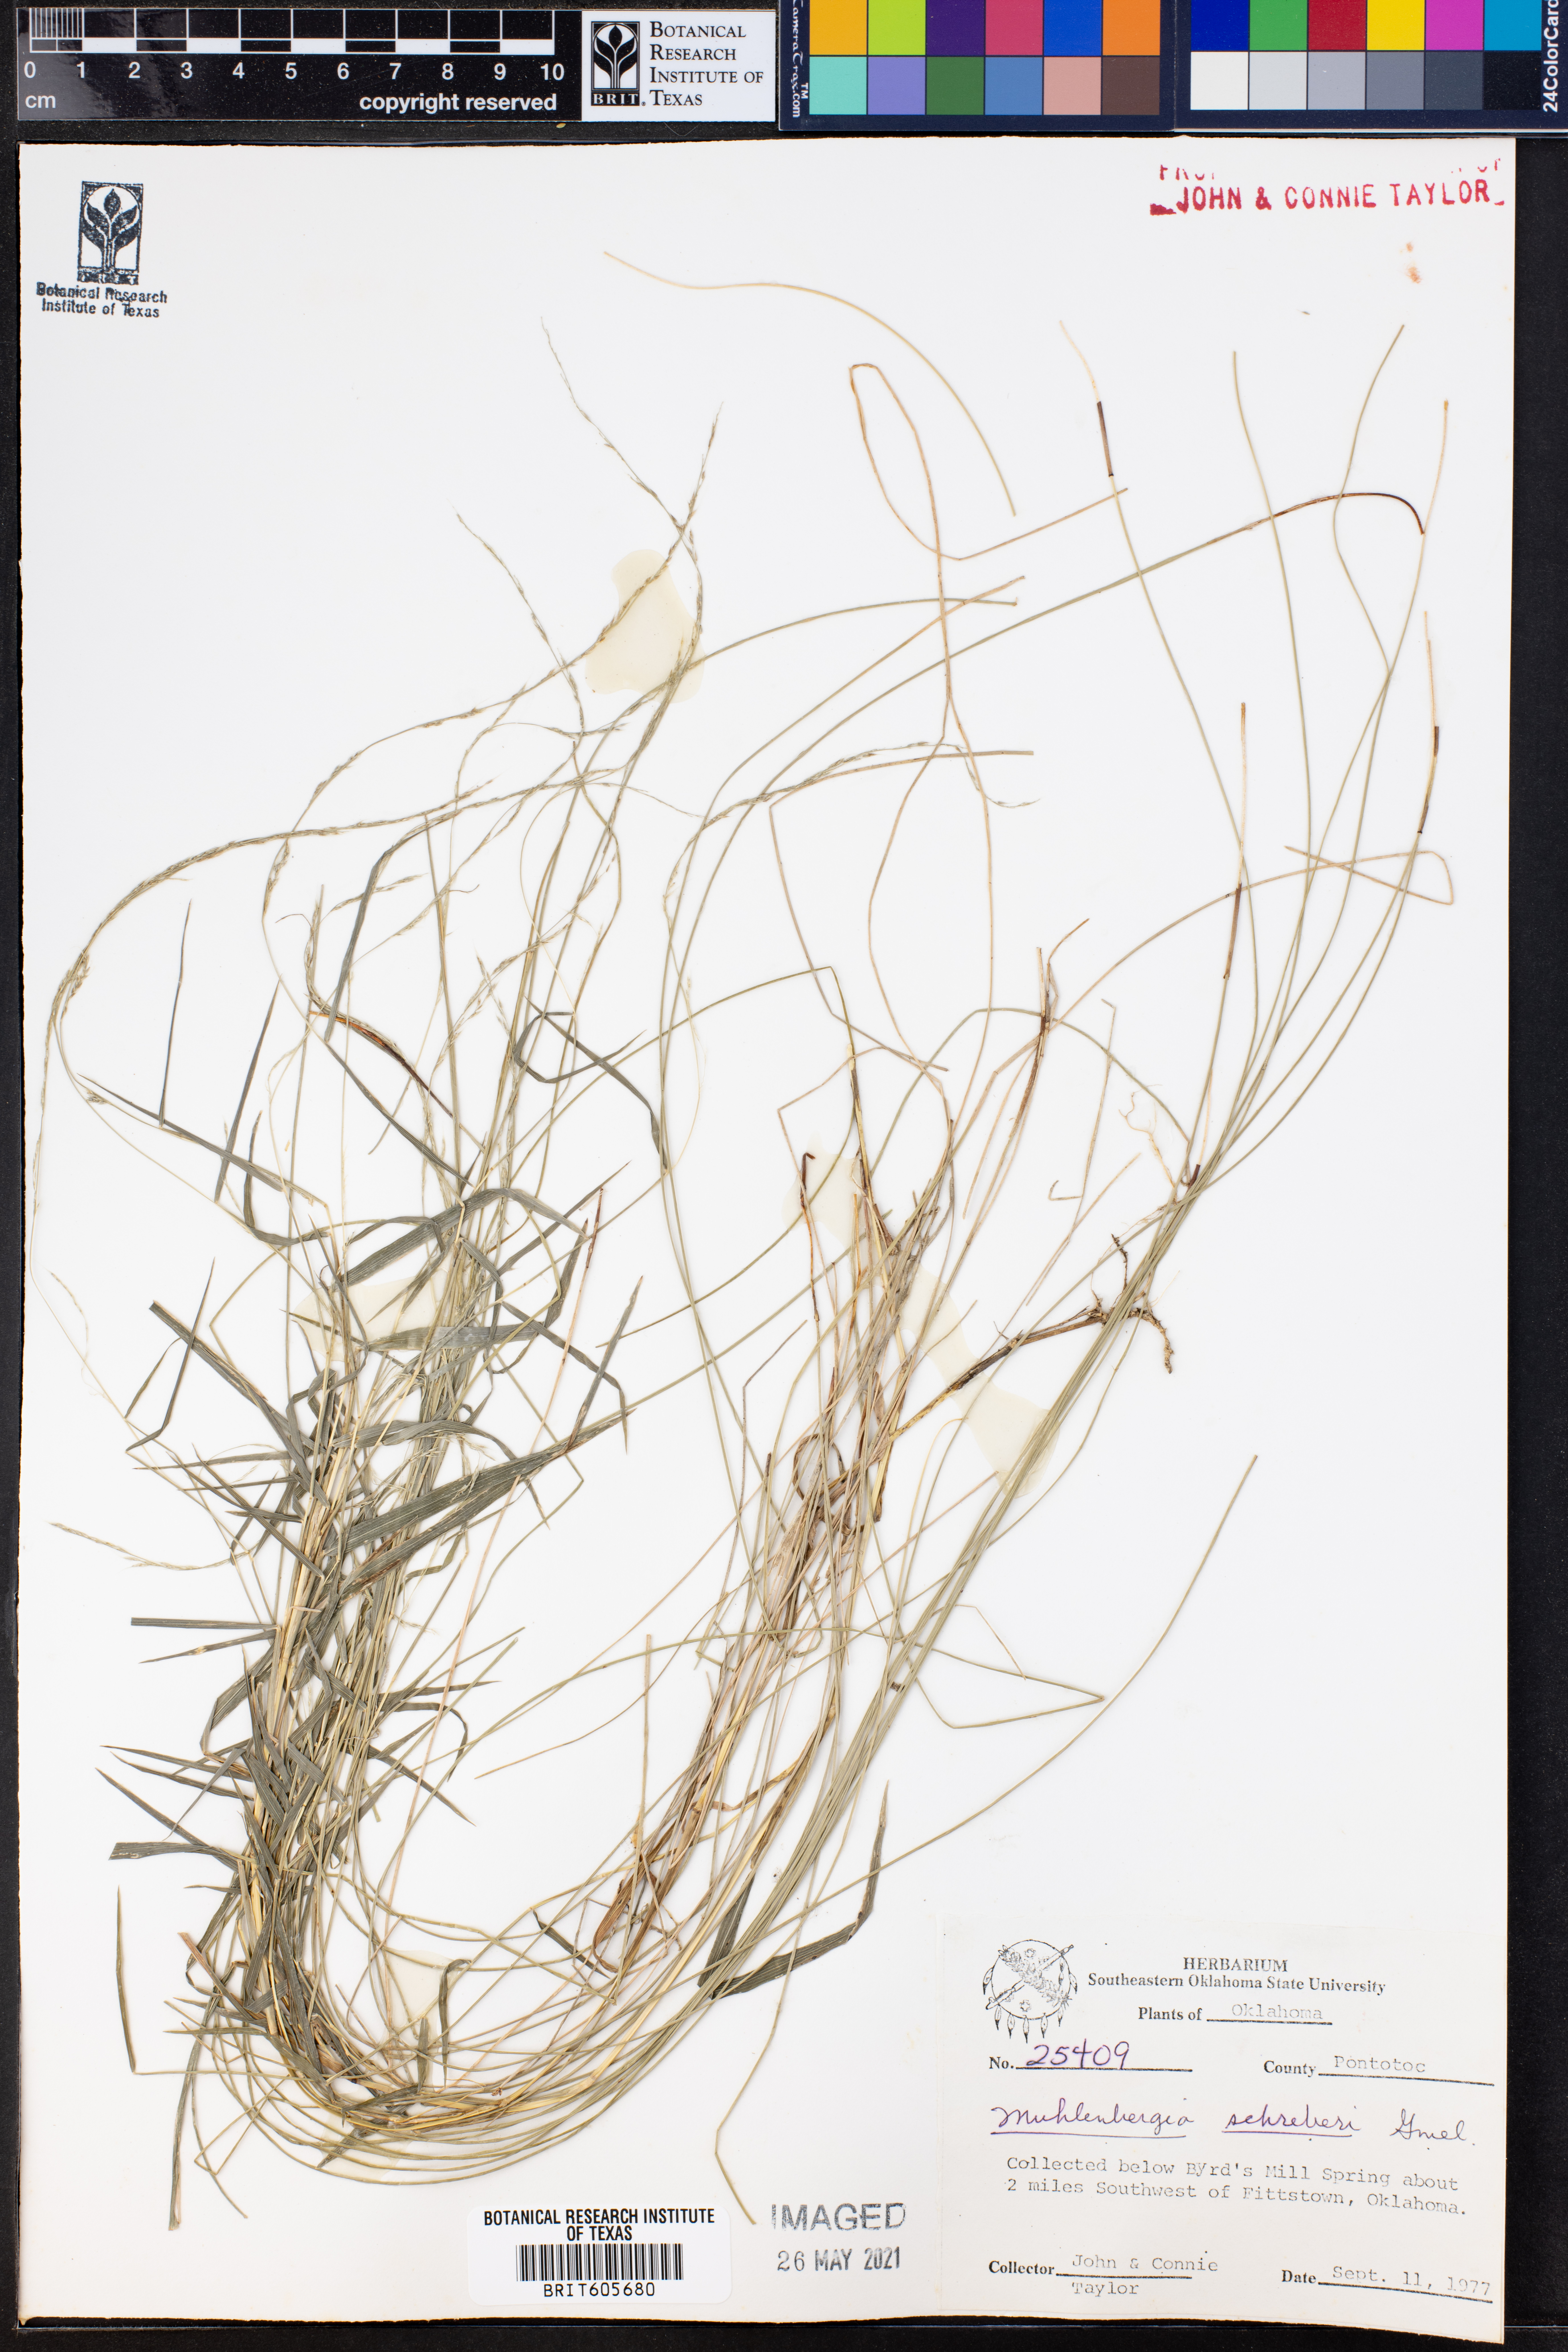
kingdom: Plantae
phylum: Tracheophyta
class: Liliopsida
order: Poales
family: Poaceae
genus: Muhlenbergia
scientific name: Muhlenbergia schreberi
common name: Nimblewill
